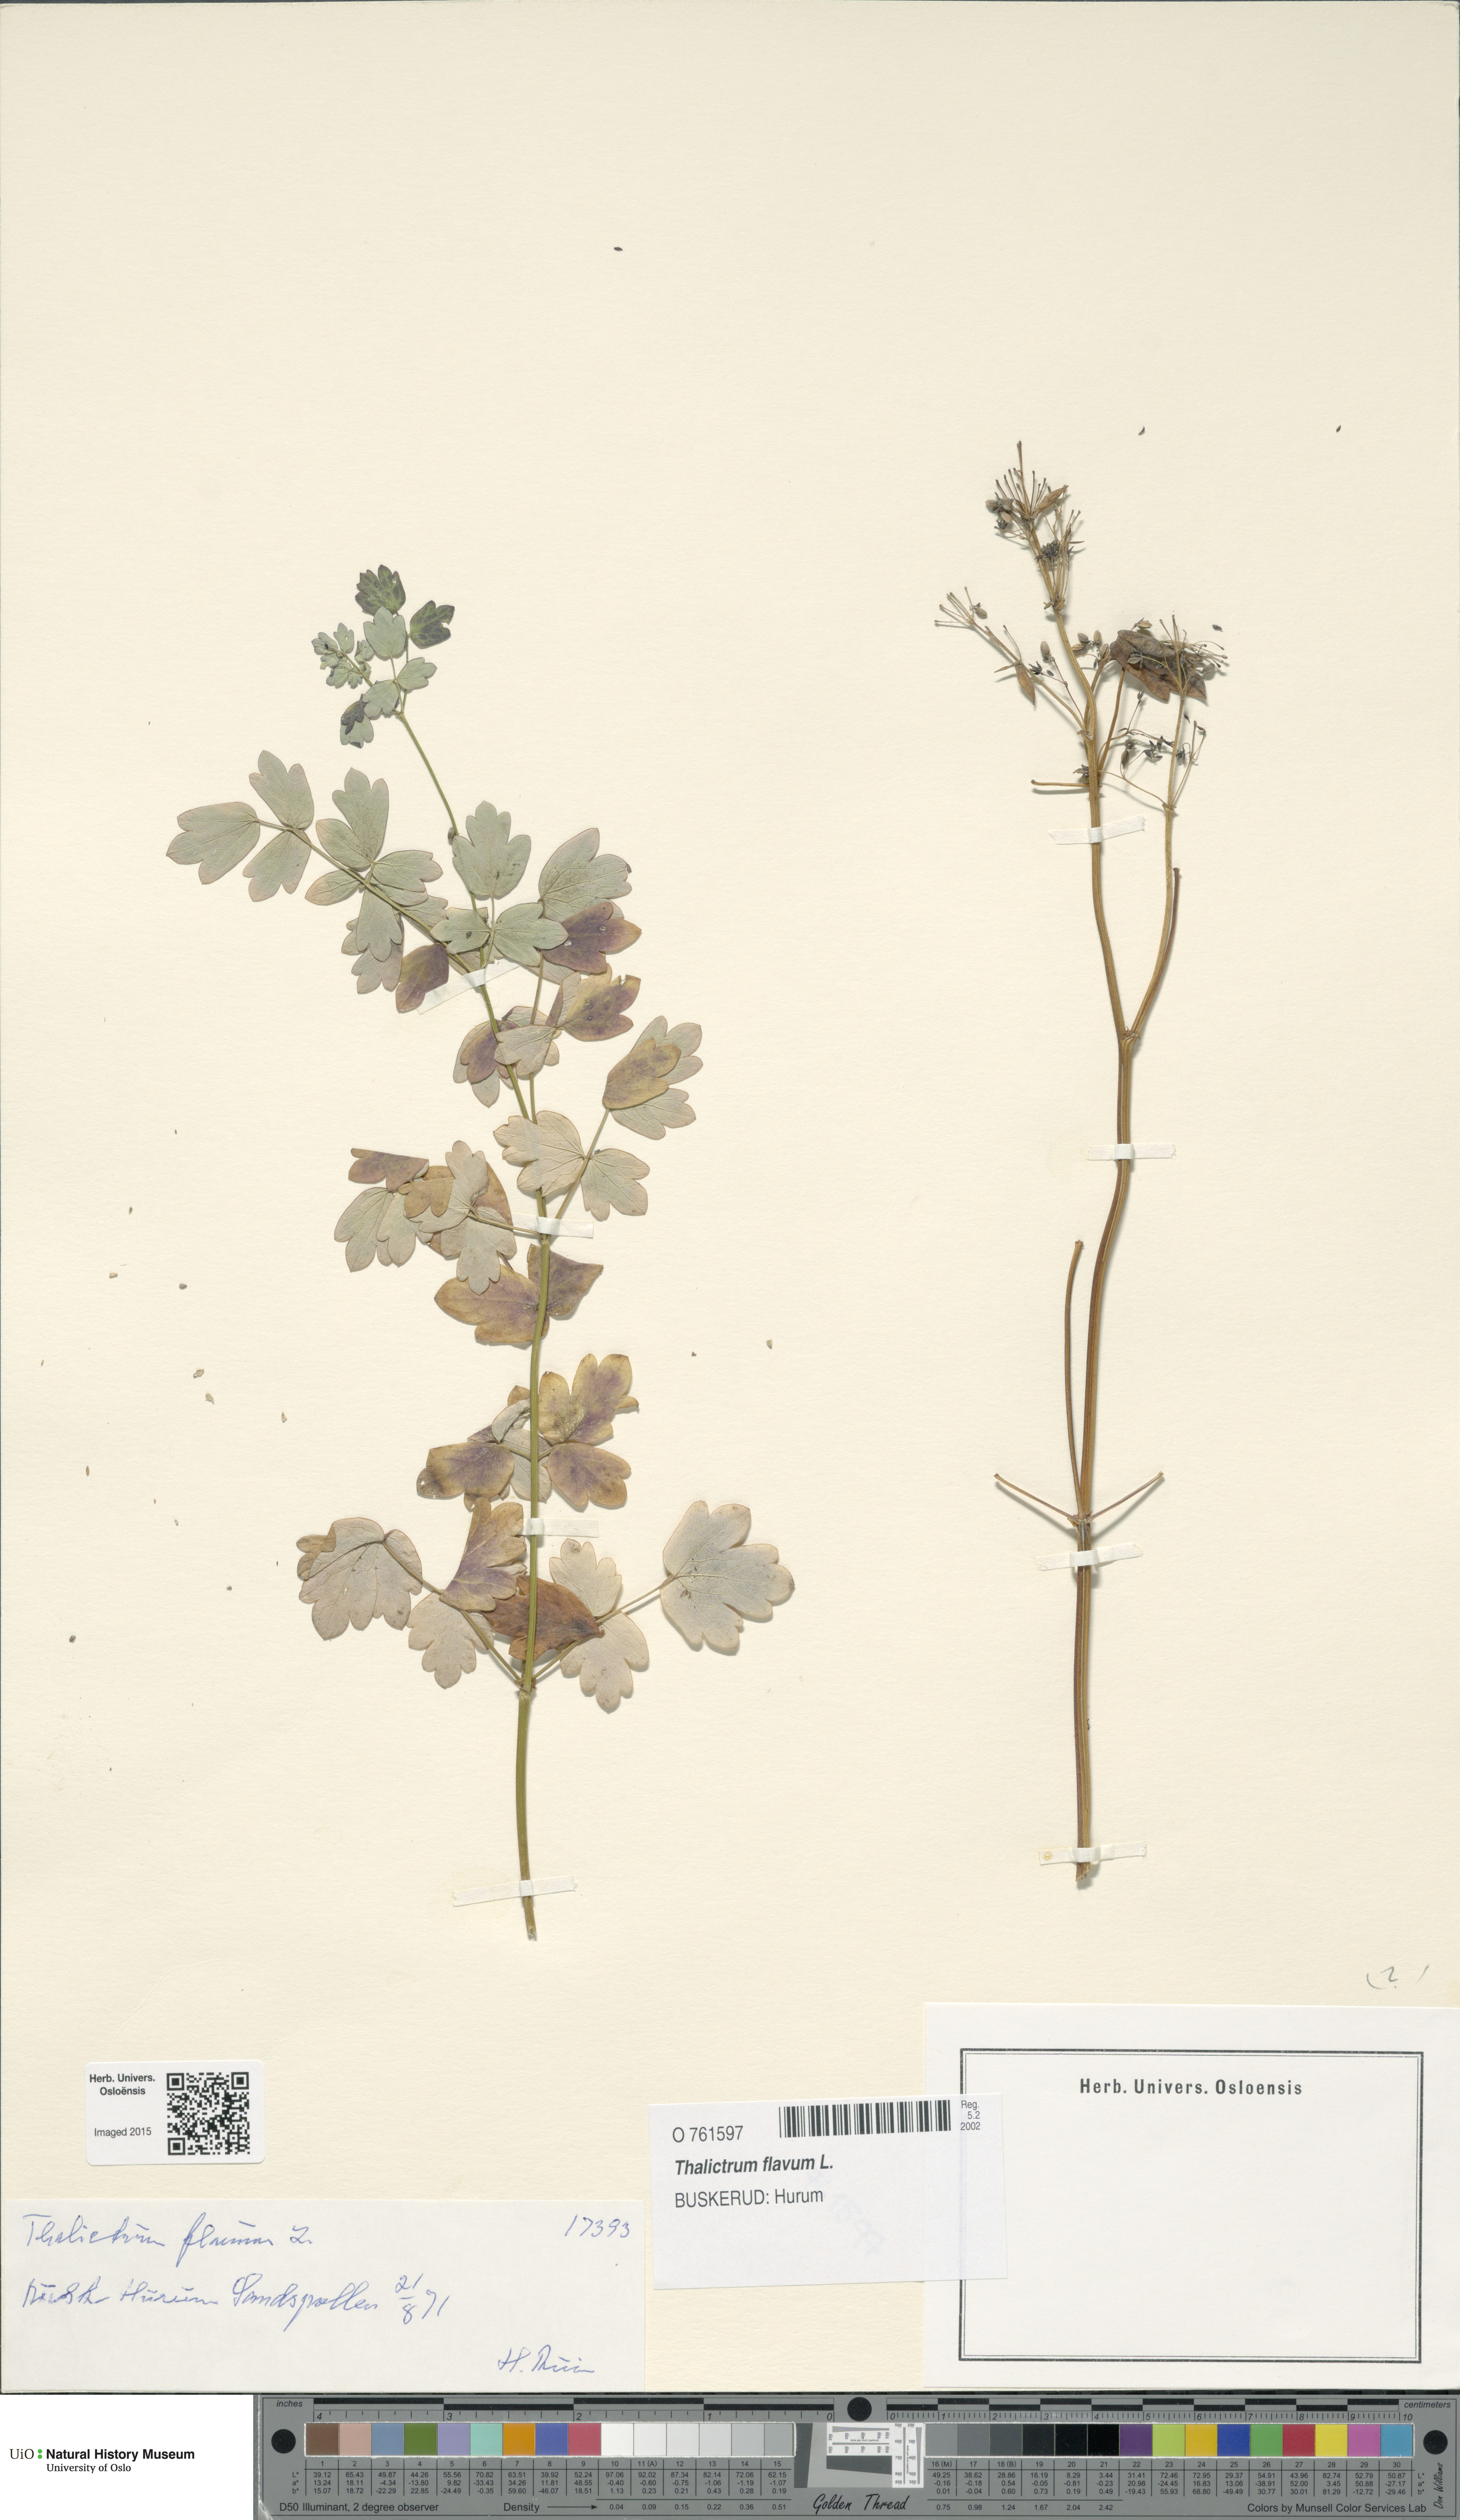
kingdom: Plantae
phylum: Tracheophyta
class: Magnoliopsida
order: Ranunculales
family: Ranunculaceae
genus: Thalictrum
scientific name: Thalictrum flavum
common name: Common meadow-rue
